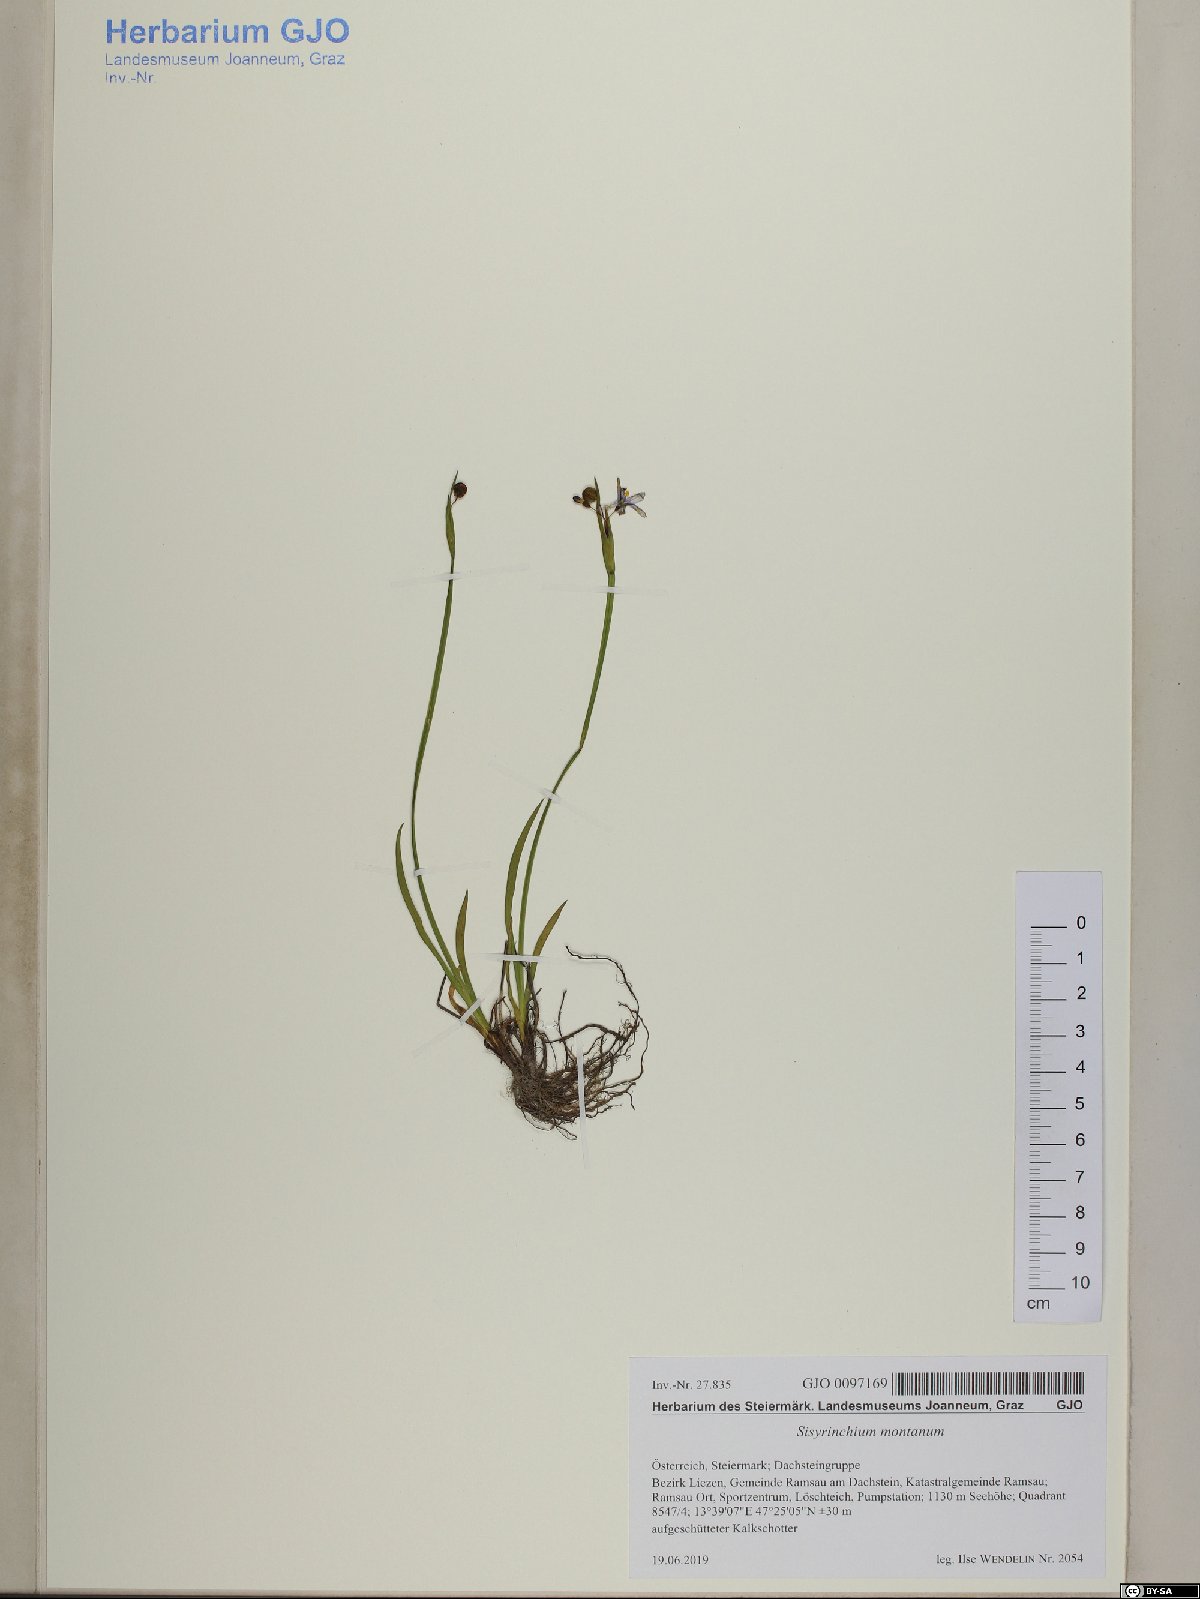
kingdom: Plantae
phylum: Tracheophyta
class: Liliopsida
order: Asparagales
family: Iridaceae
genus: Sisyrinchium
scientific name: Sisyrinchium montanum
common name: American blue-eyed-grass
